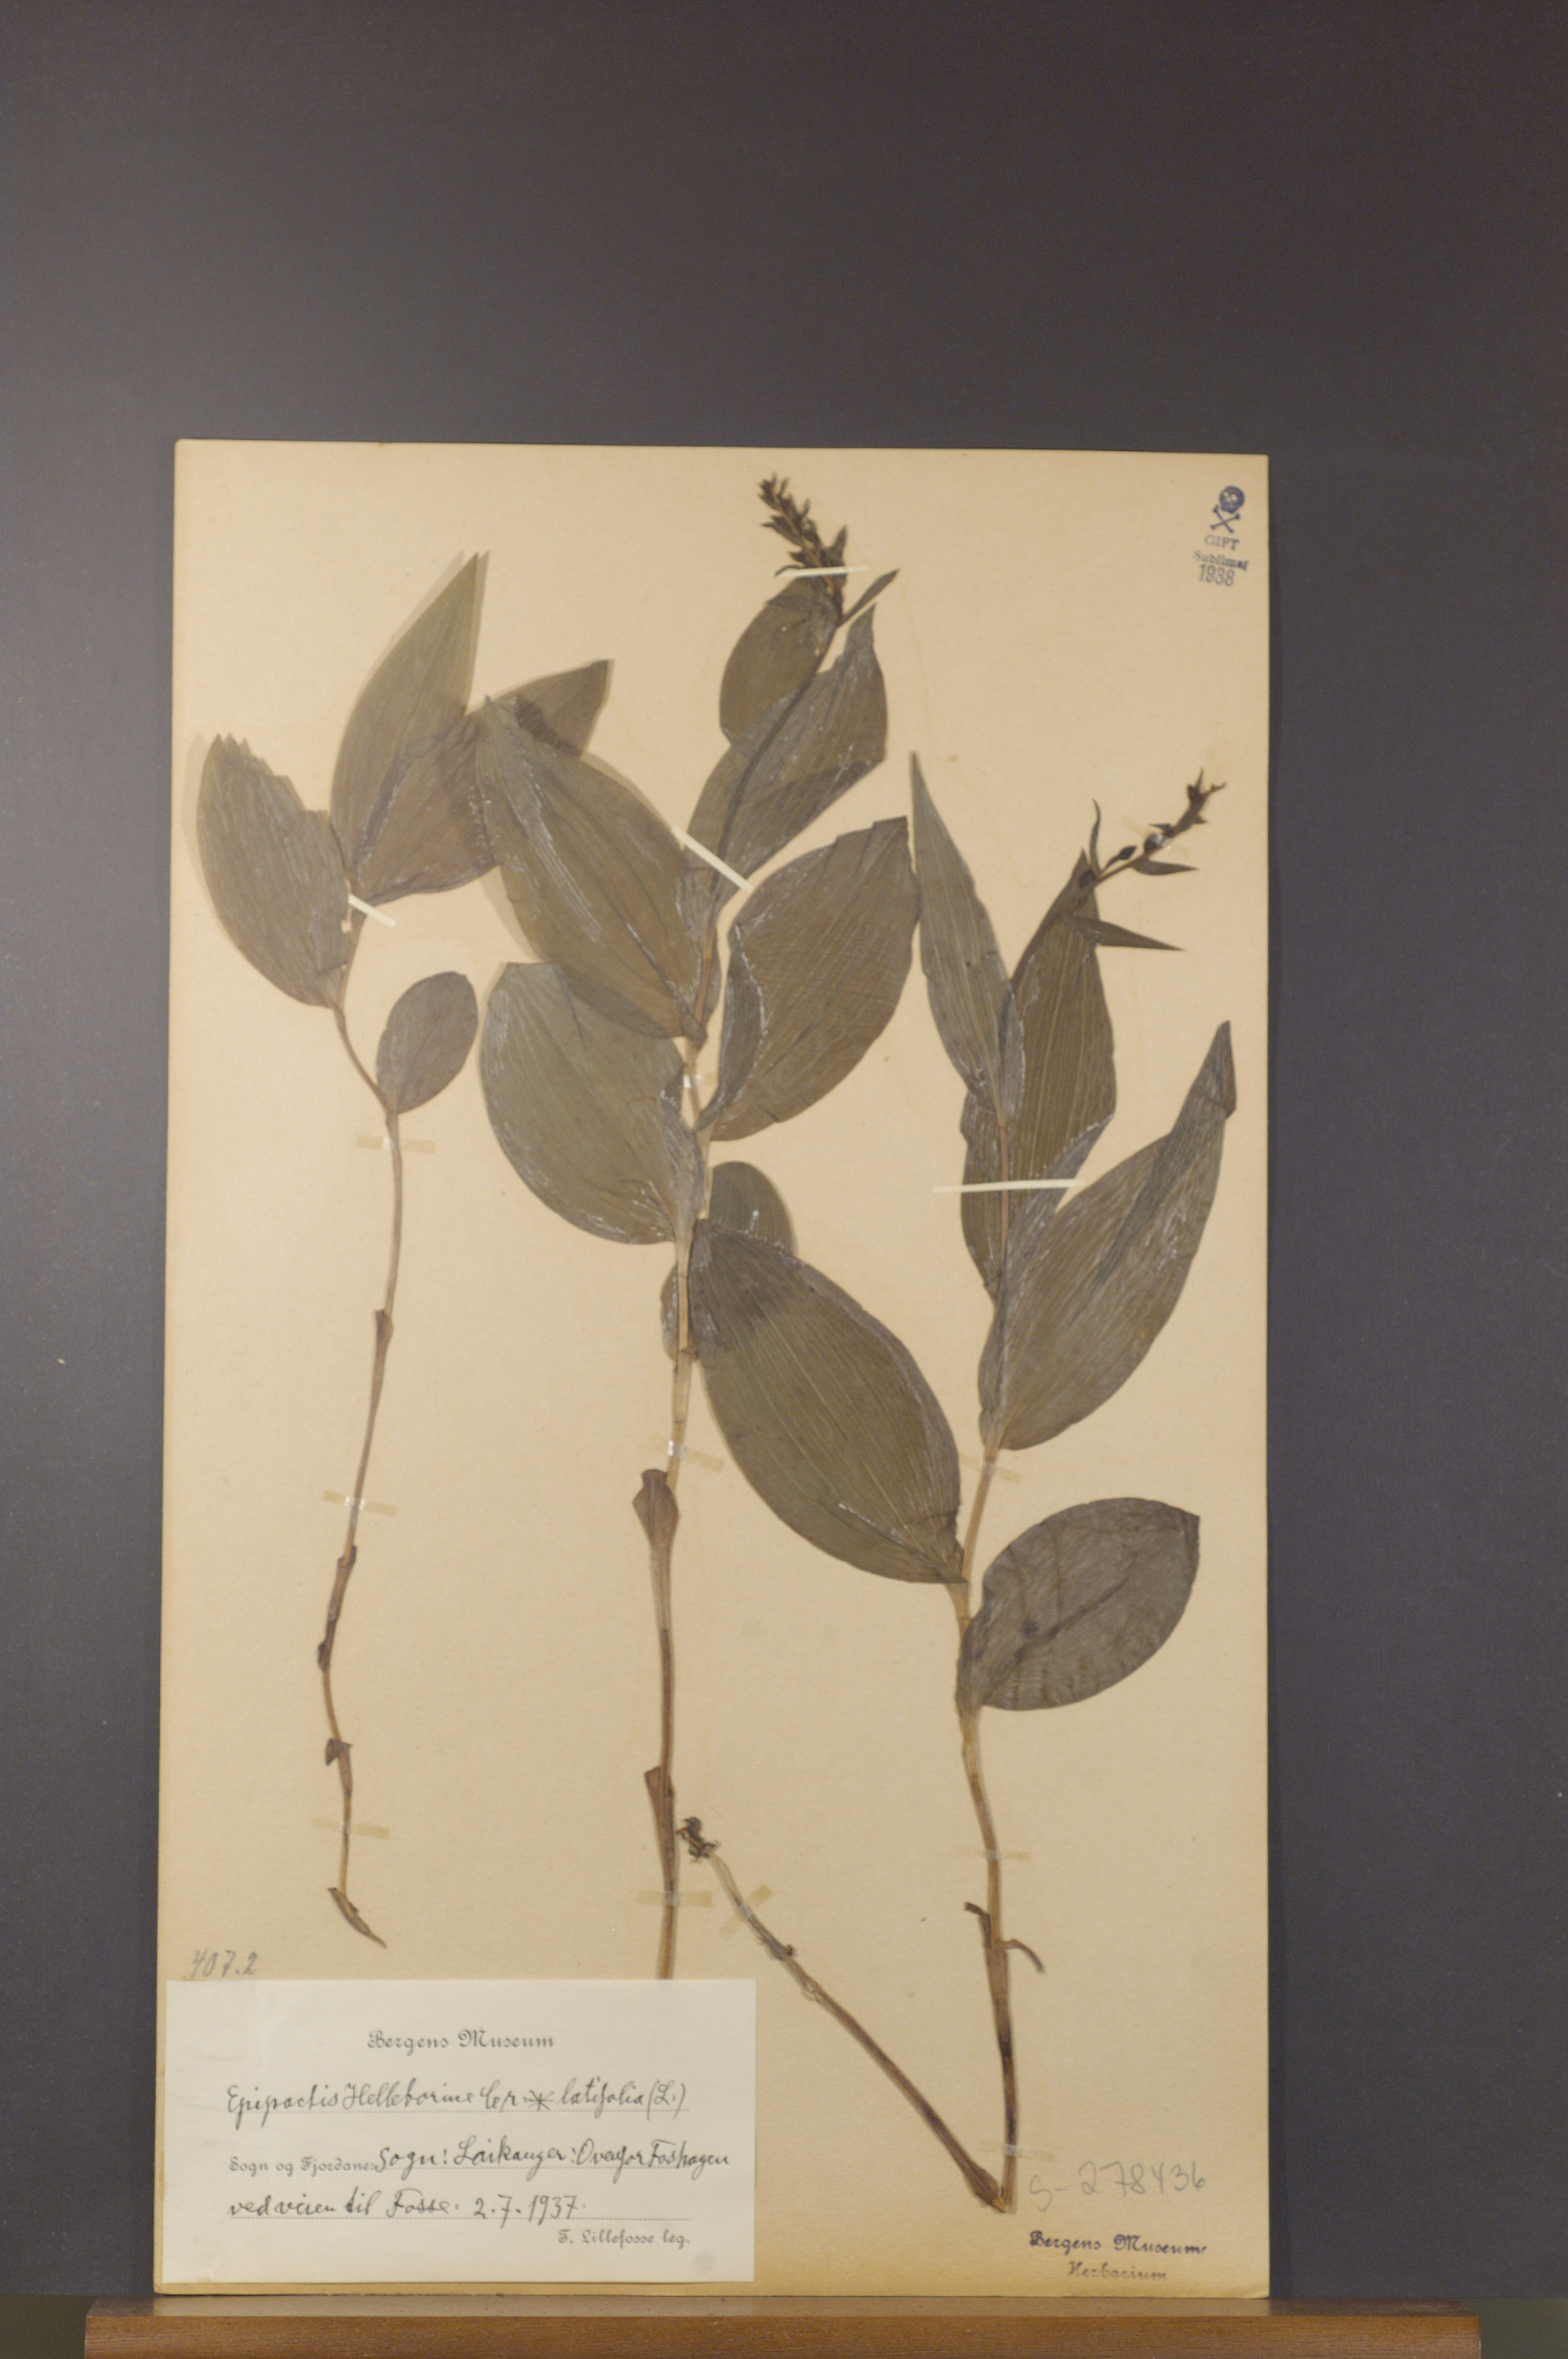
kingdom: Plantae
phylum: Tracheophyta
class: Liliopsida
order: Asparagales
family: Orchidaceae
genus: Epipactis
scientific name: Epipactis helleborine
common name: Broad-leaved helleborine
